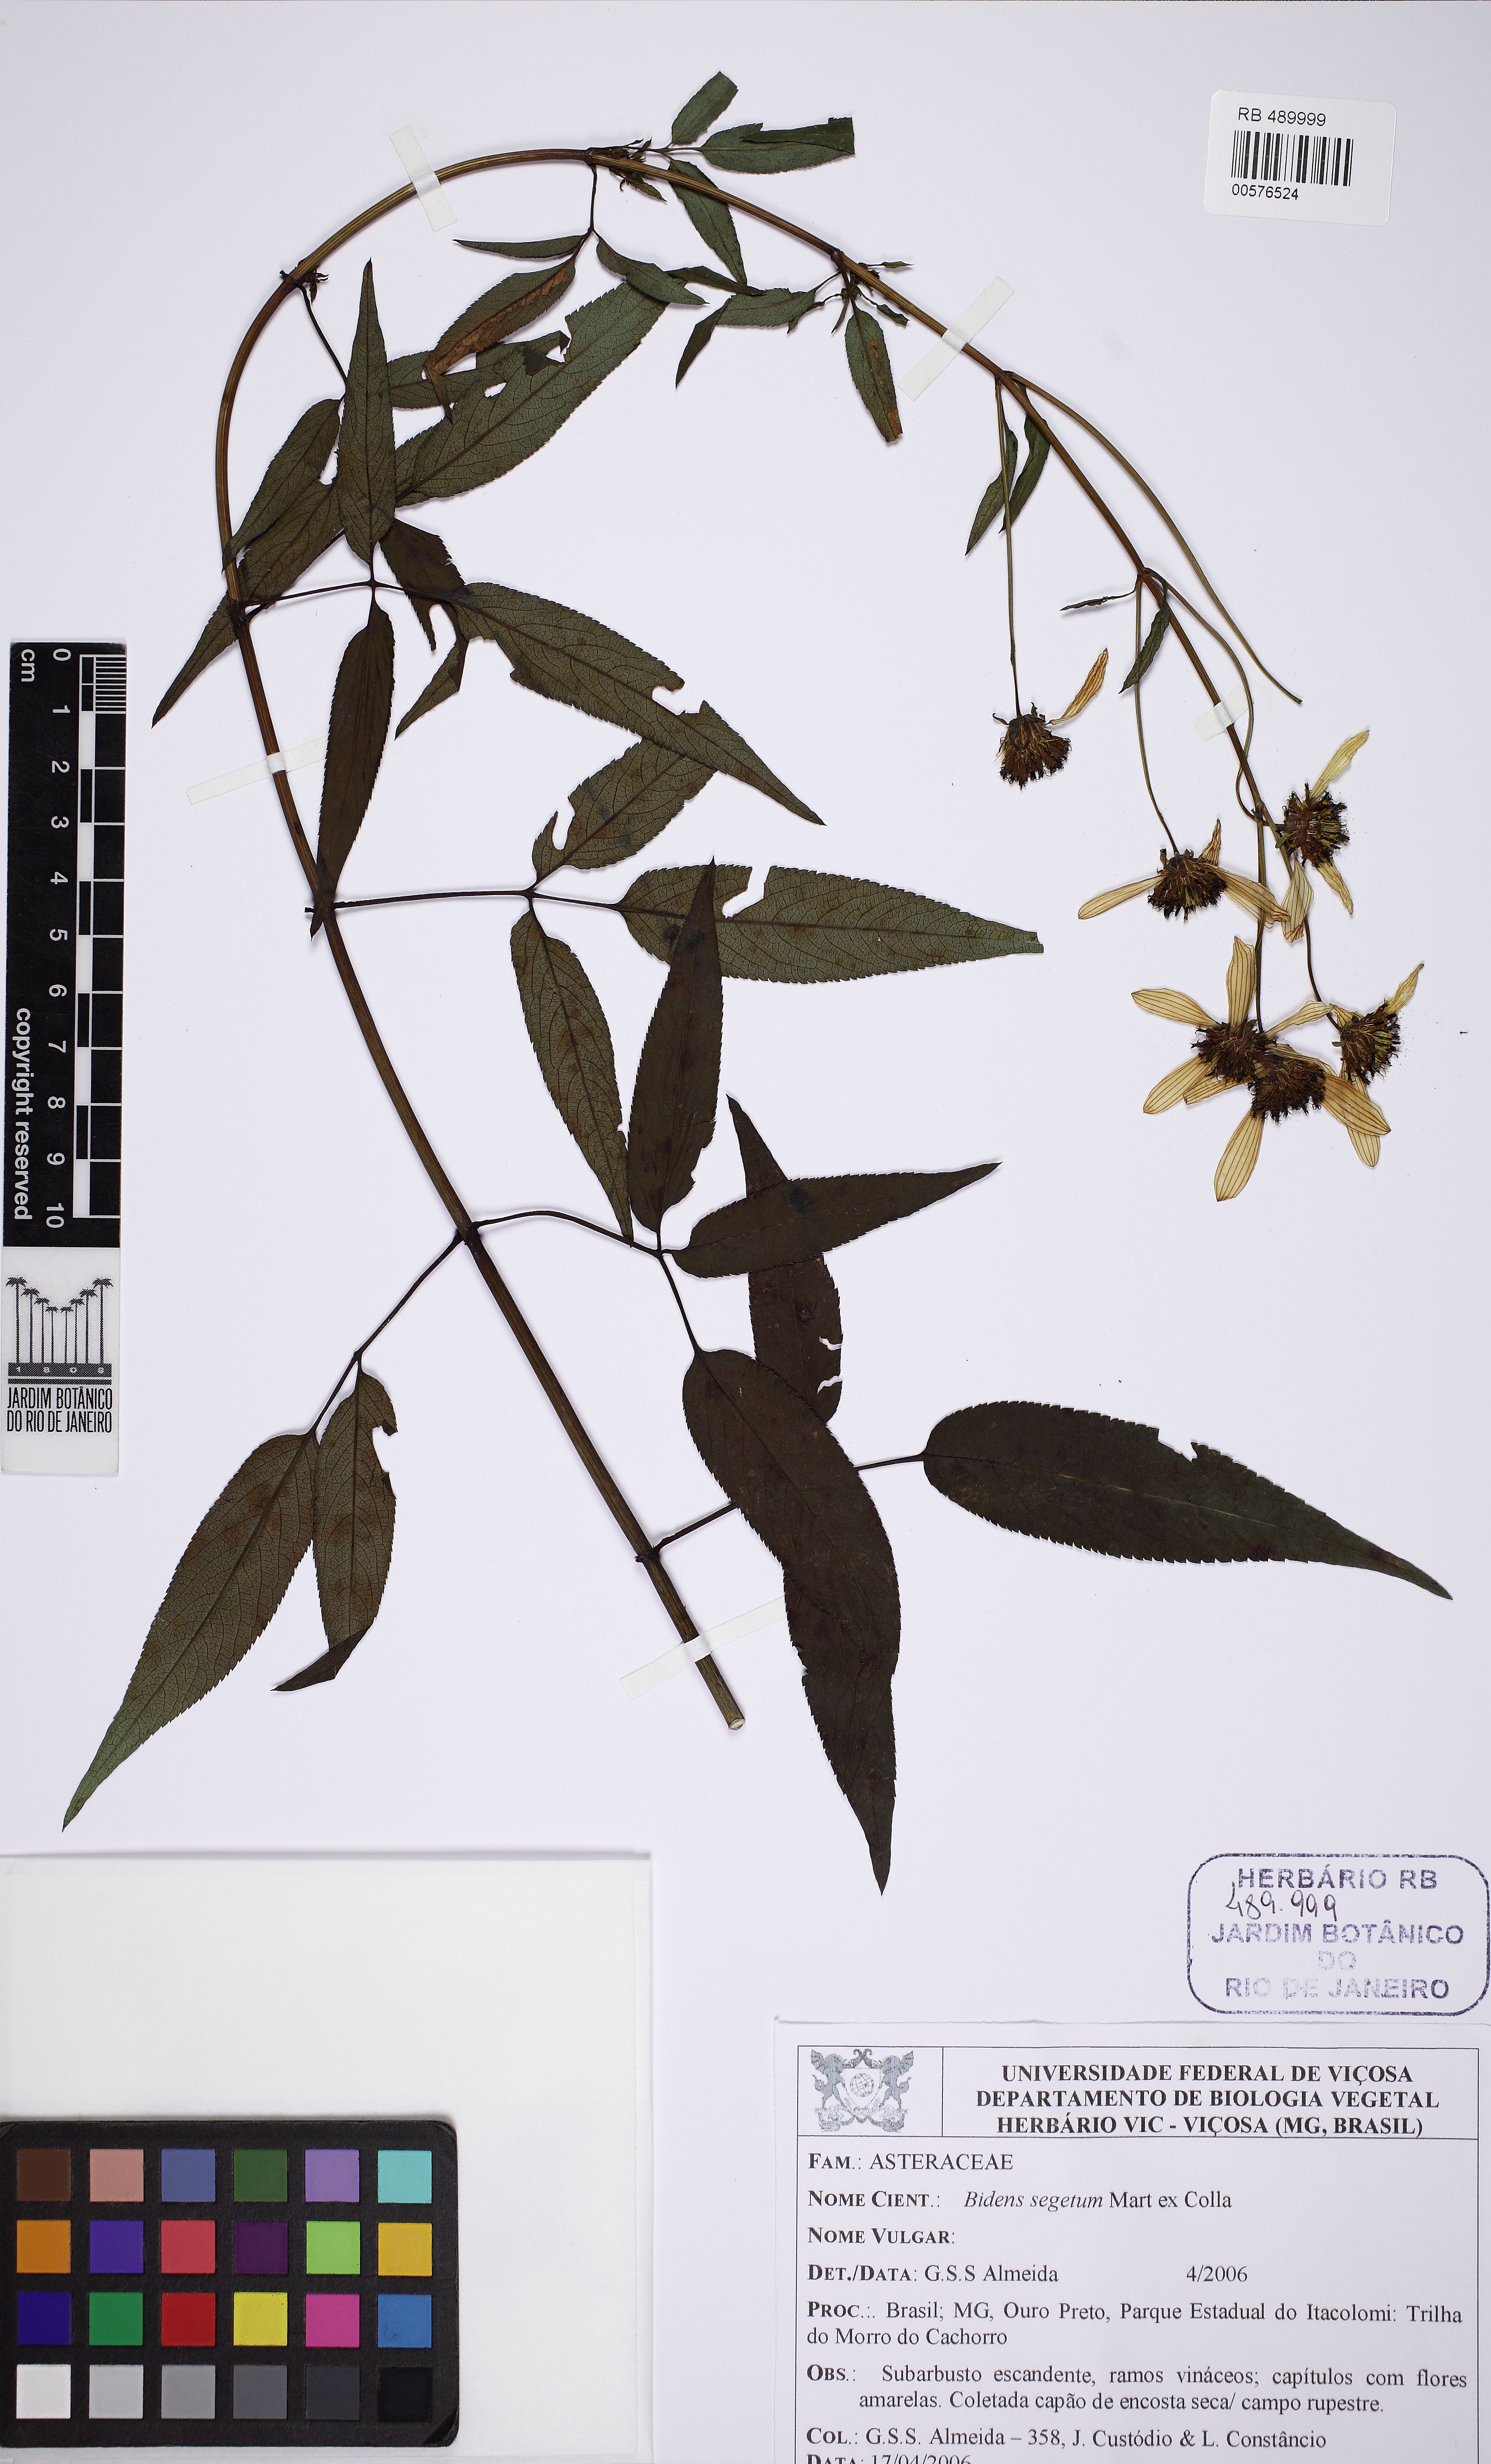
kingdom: Plantae
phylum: Tracheophyta
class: Magnoliopsida
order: Asterales
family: Asteraceae
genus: Bidens
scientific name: Bidens segetum
